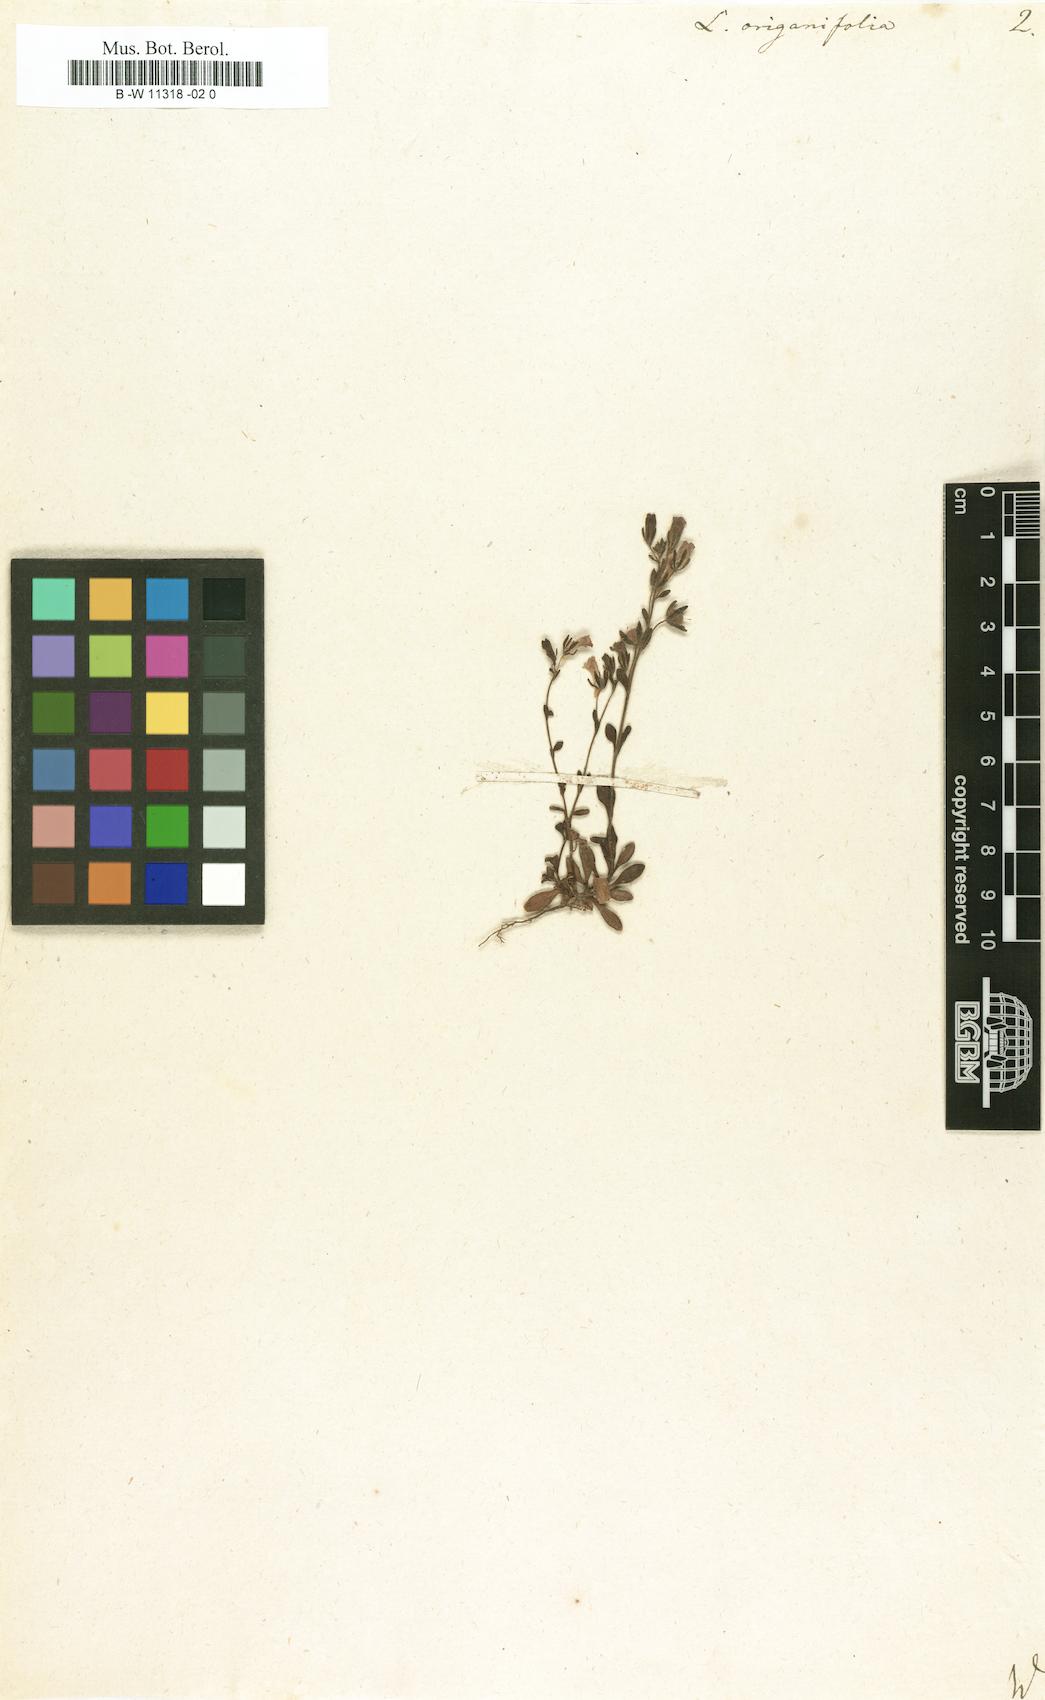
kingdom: Plantae
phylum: Tracheophyta
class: Magnoliopsida
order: Lamiales
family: Plantaginaceae
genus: Chaenorhinum
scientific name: Chaenorhinum origanifolium
